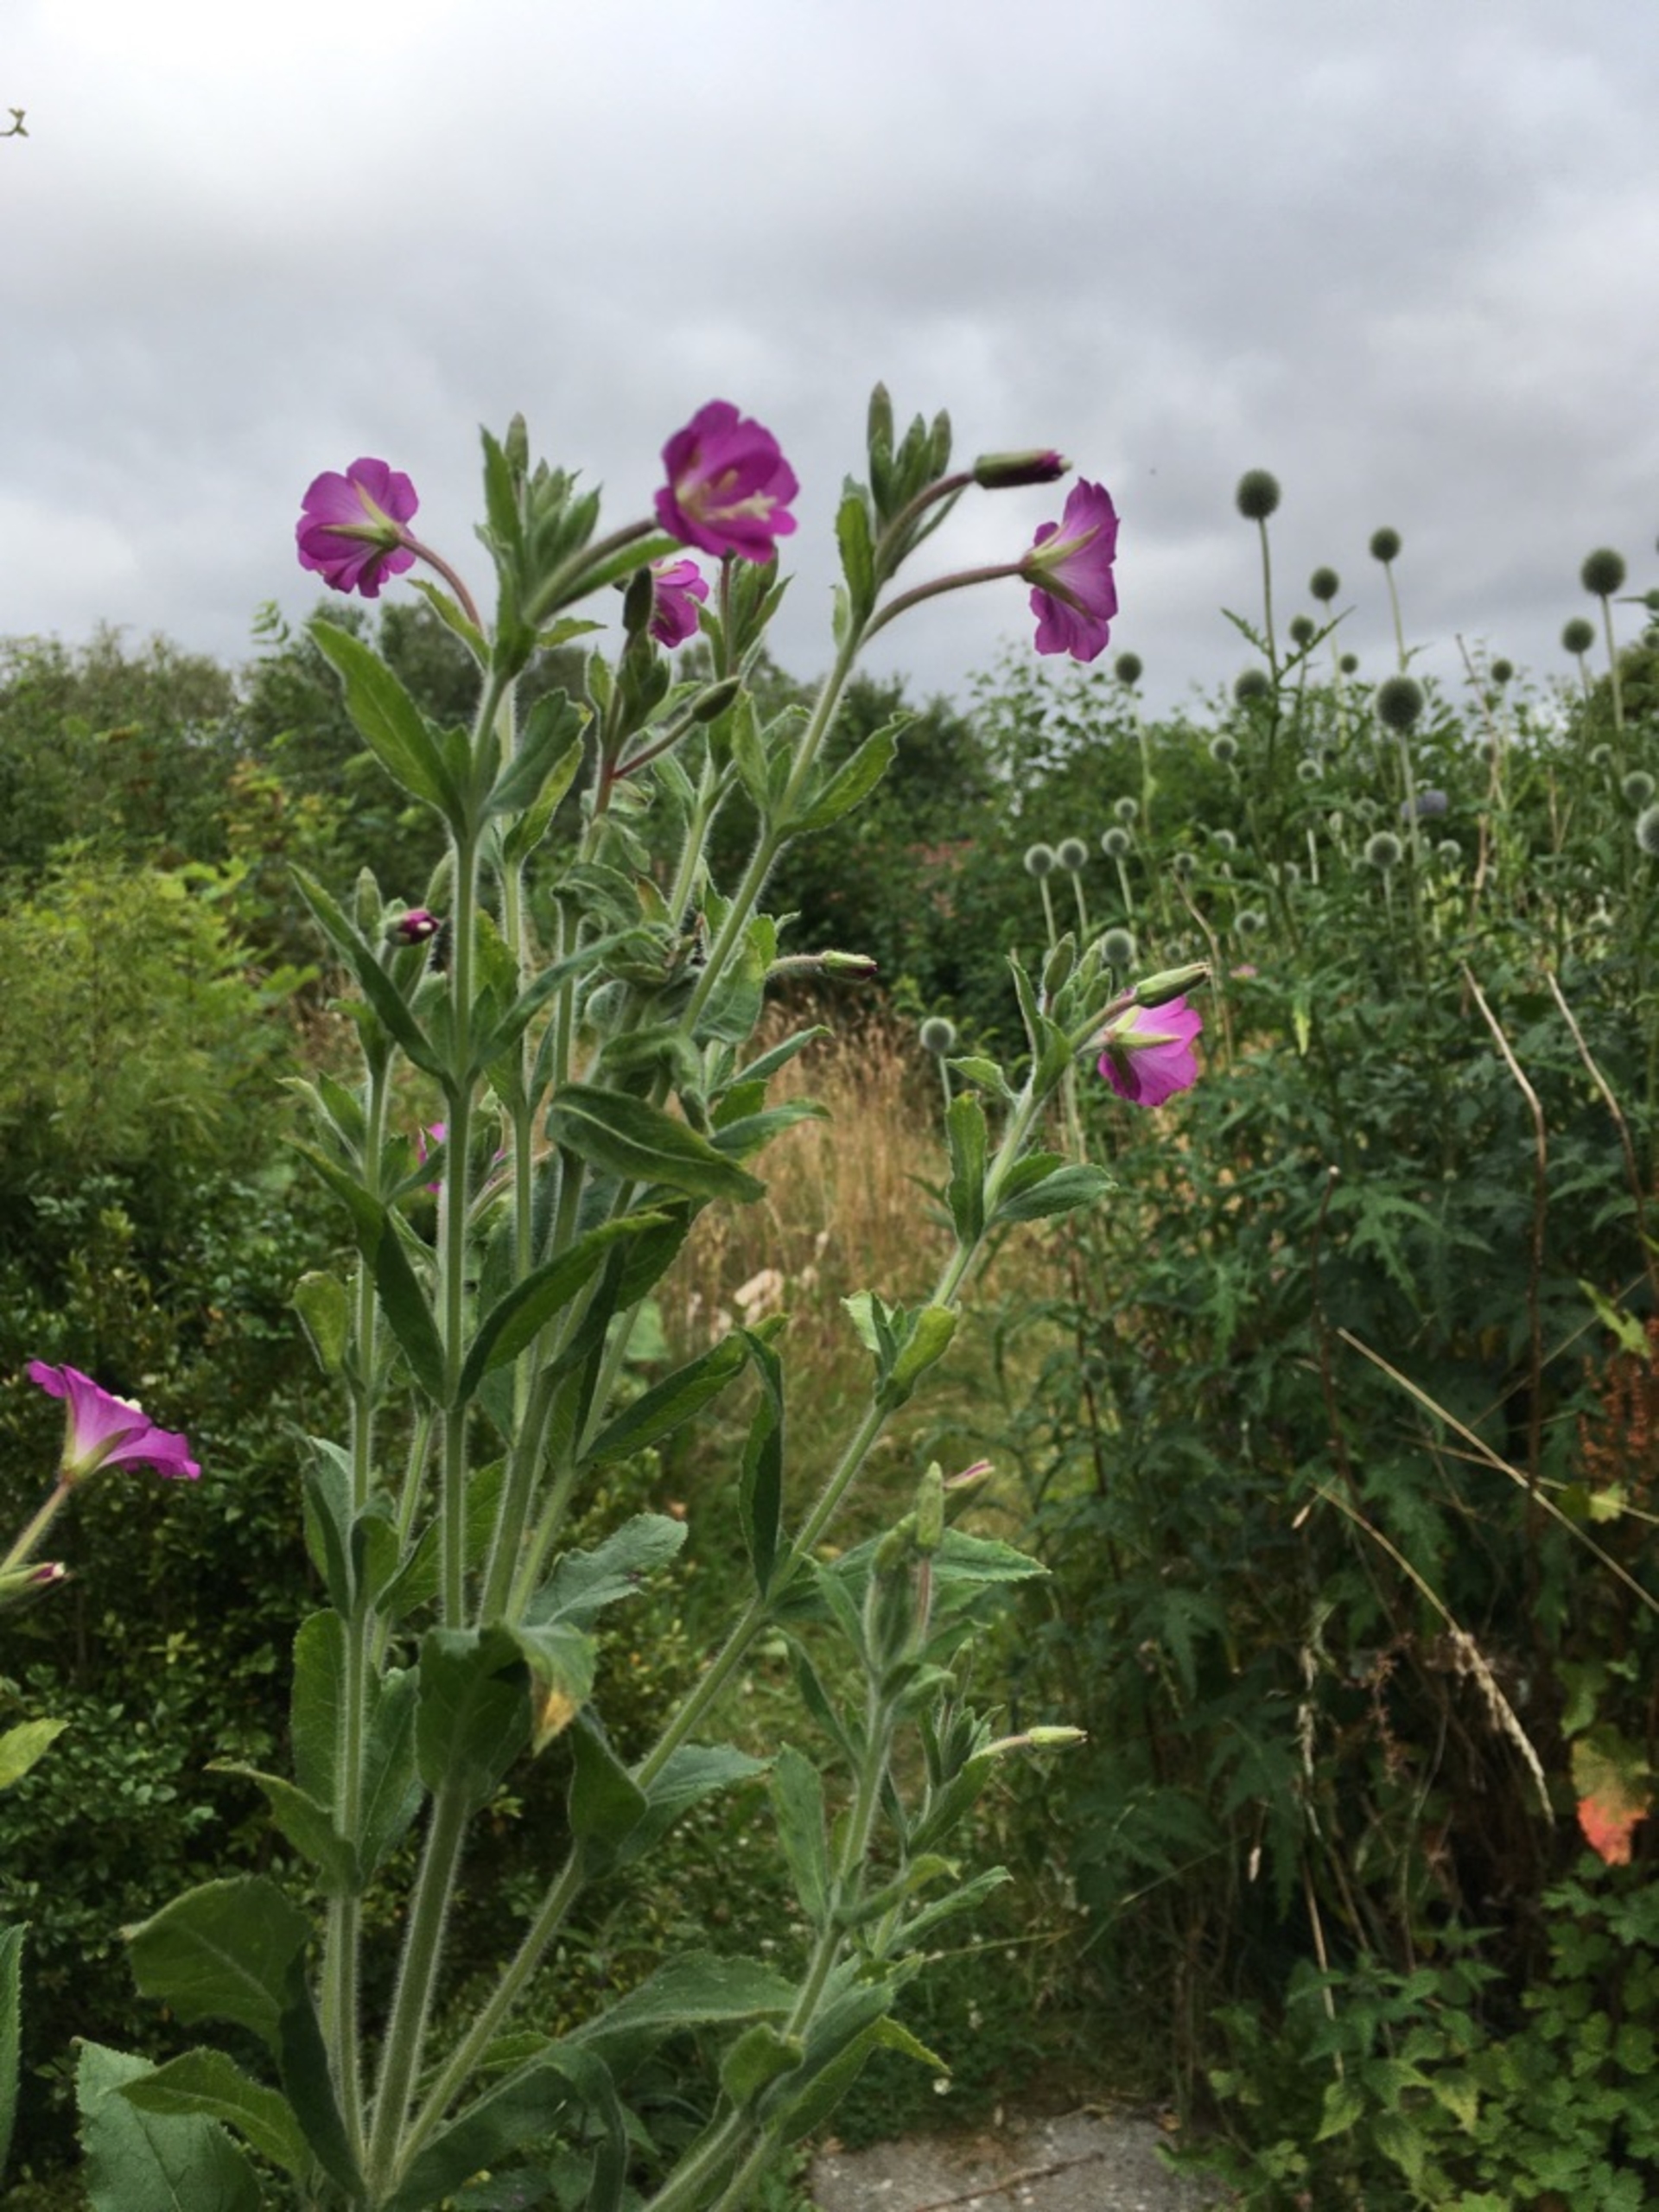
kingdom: Plantae
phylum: Tracheophyta
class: Magnoliopsida
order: Myrtales
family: Onagraceae
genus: Epilobium
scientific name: Epilobium hirsutum
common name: Lådden dueurt
